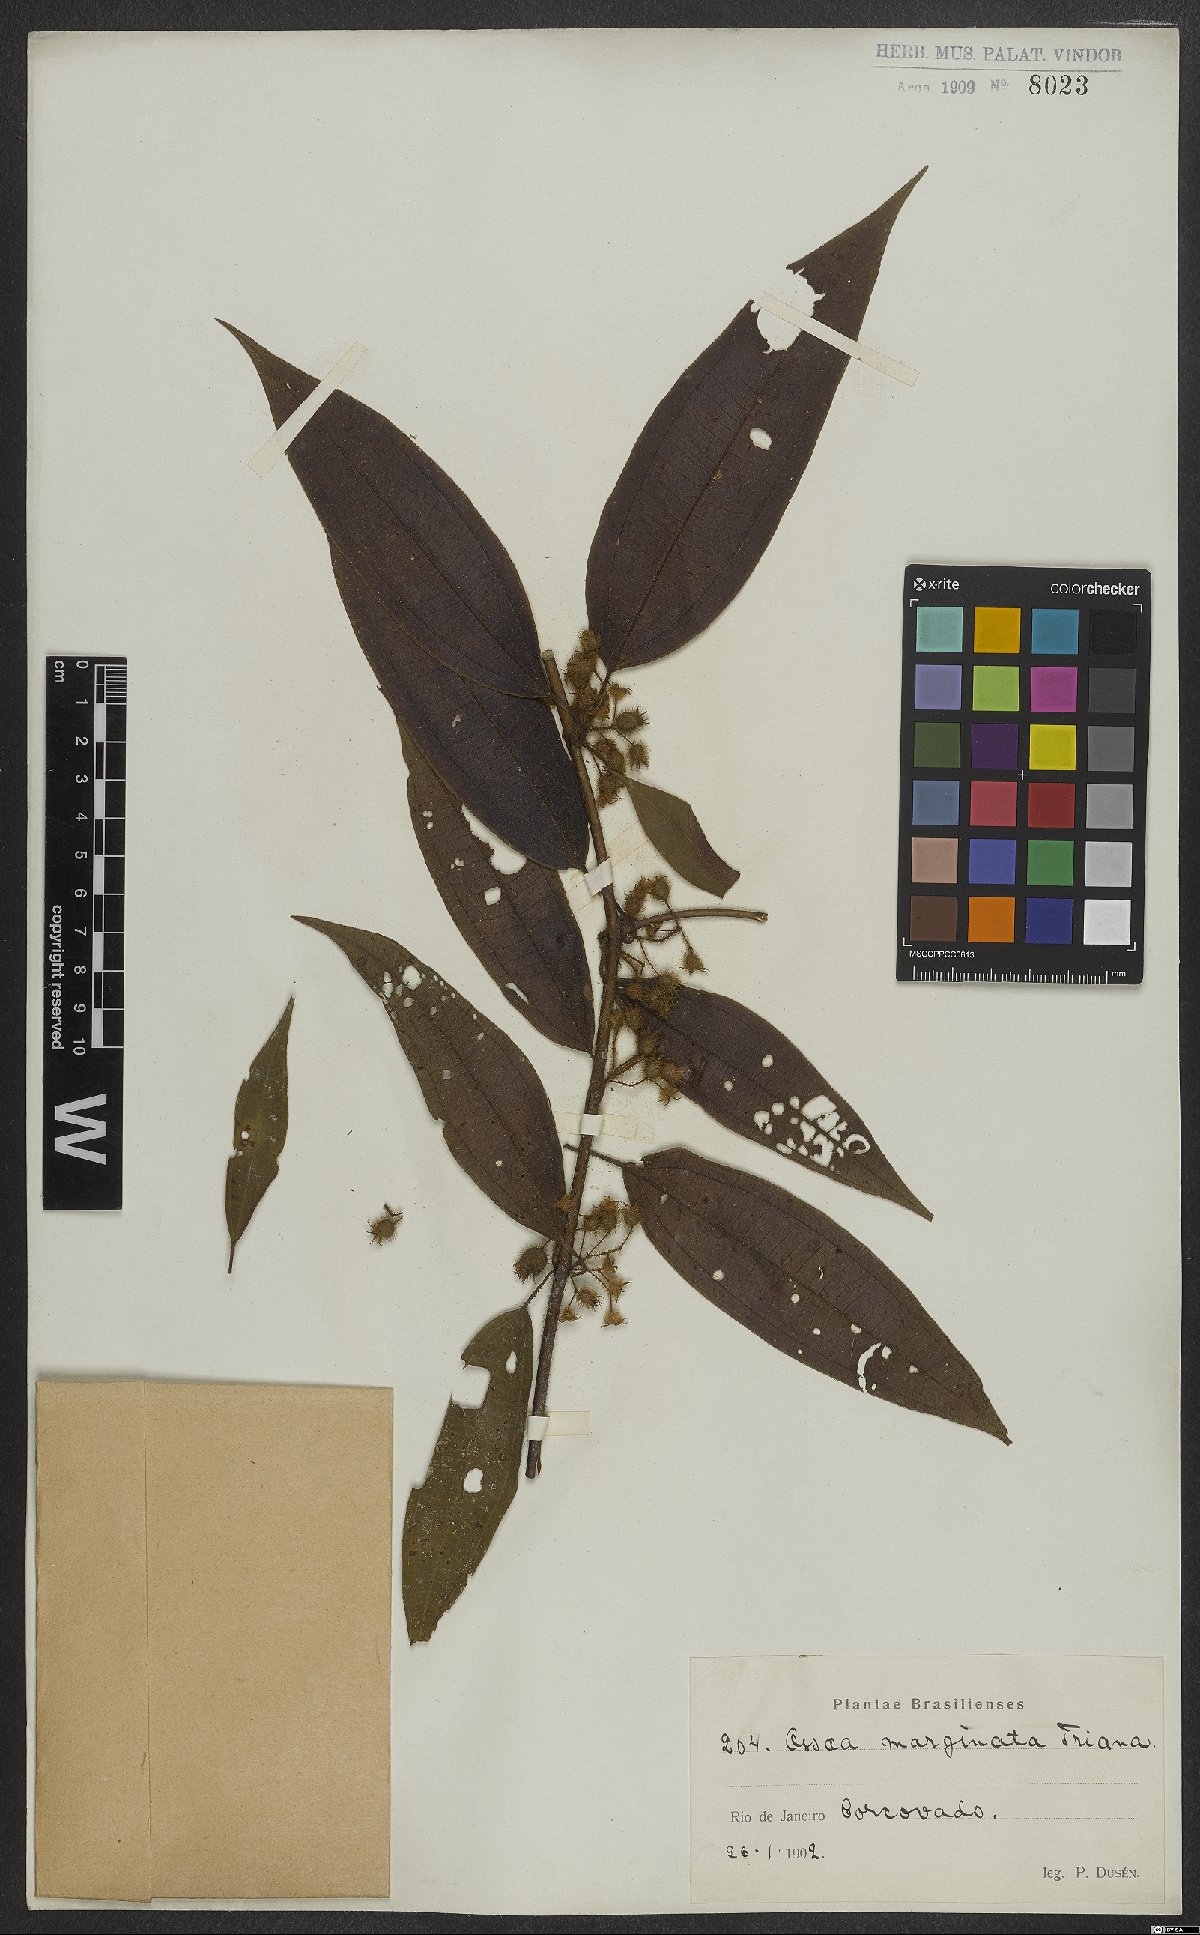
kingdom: Plantae
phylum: Tracheophyta
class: Magnoliopsida
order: Myrtales
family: Melastomataceae
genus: Miconia
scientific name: Miconia leamarginata
